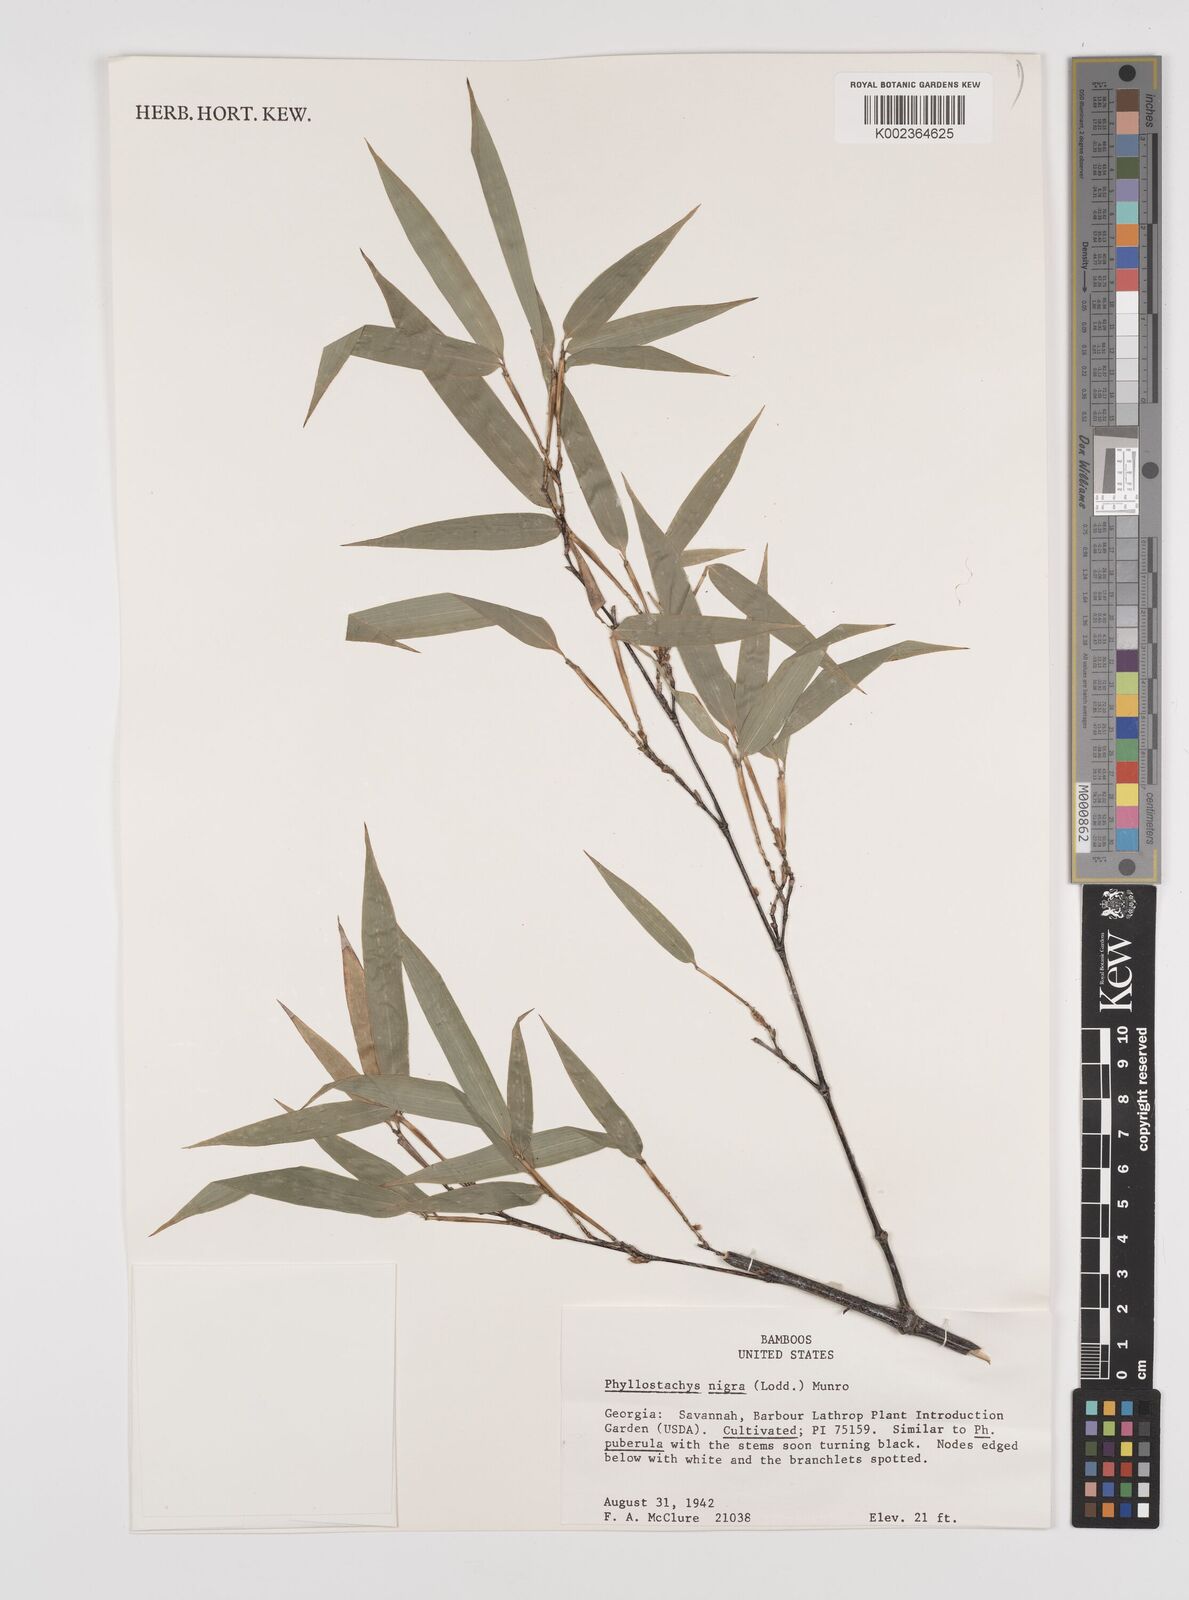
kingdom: Plantae
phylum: Tracheophyta
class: Liliopsida
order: Poales
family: Poaceae
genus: Phyllostachys
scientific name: Phyllostachys nigra
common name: Black bamboo
